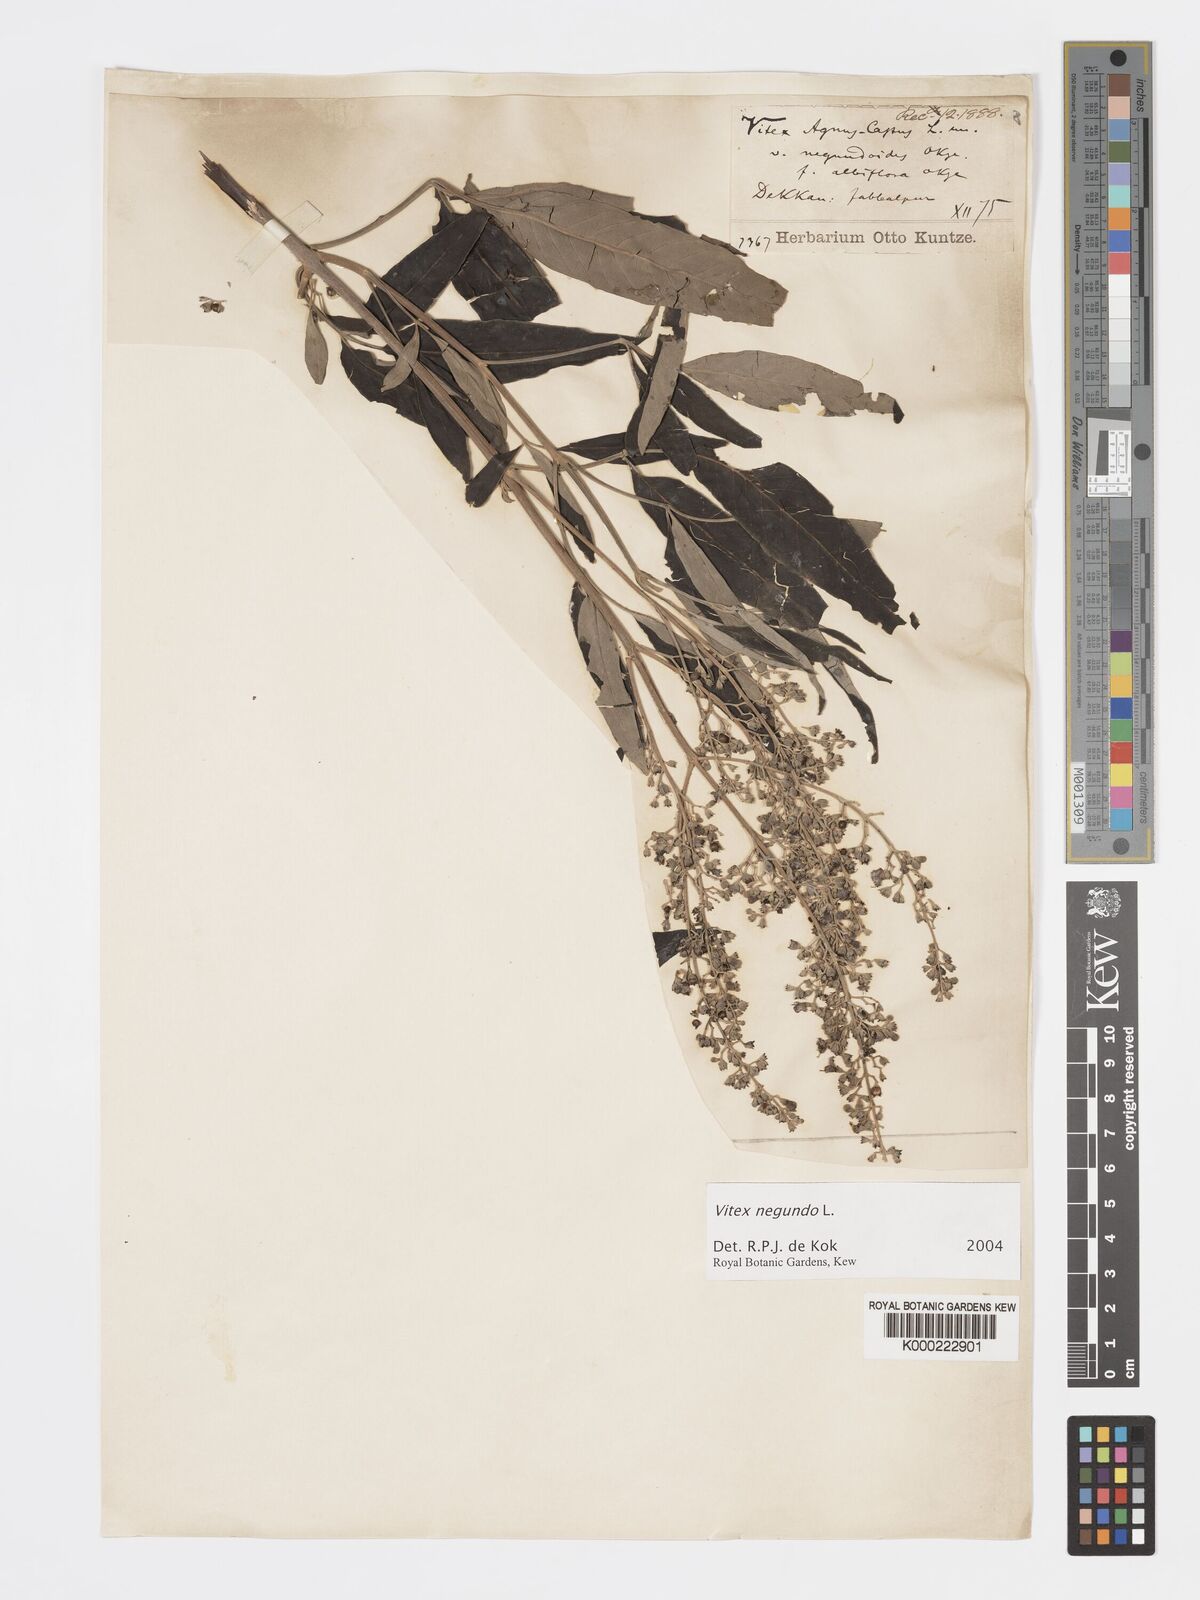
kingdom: Plantae
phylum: Tracheophyta
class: Magnoliopsida
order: Lamiales
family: Lamiaceae
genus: Vitex
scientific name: Vitex negundo
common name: Chinese chastetree
